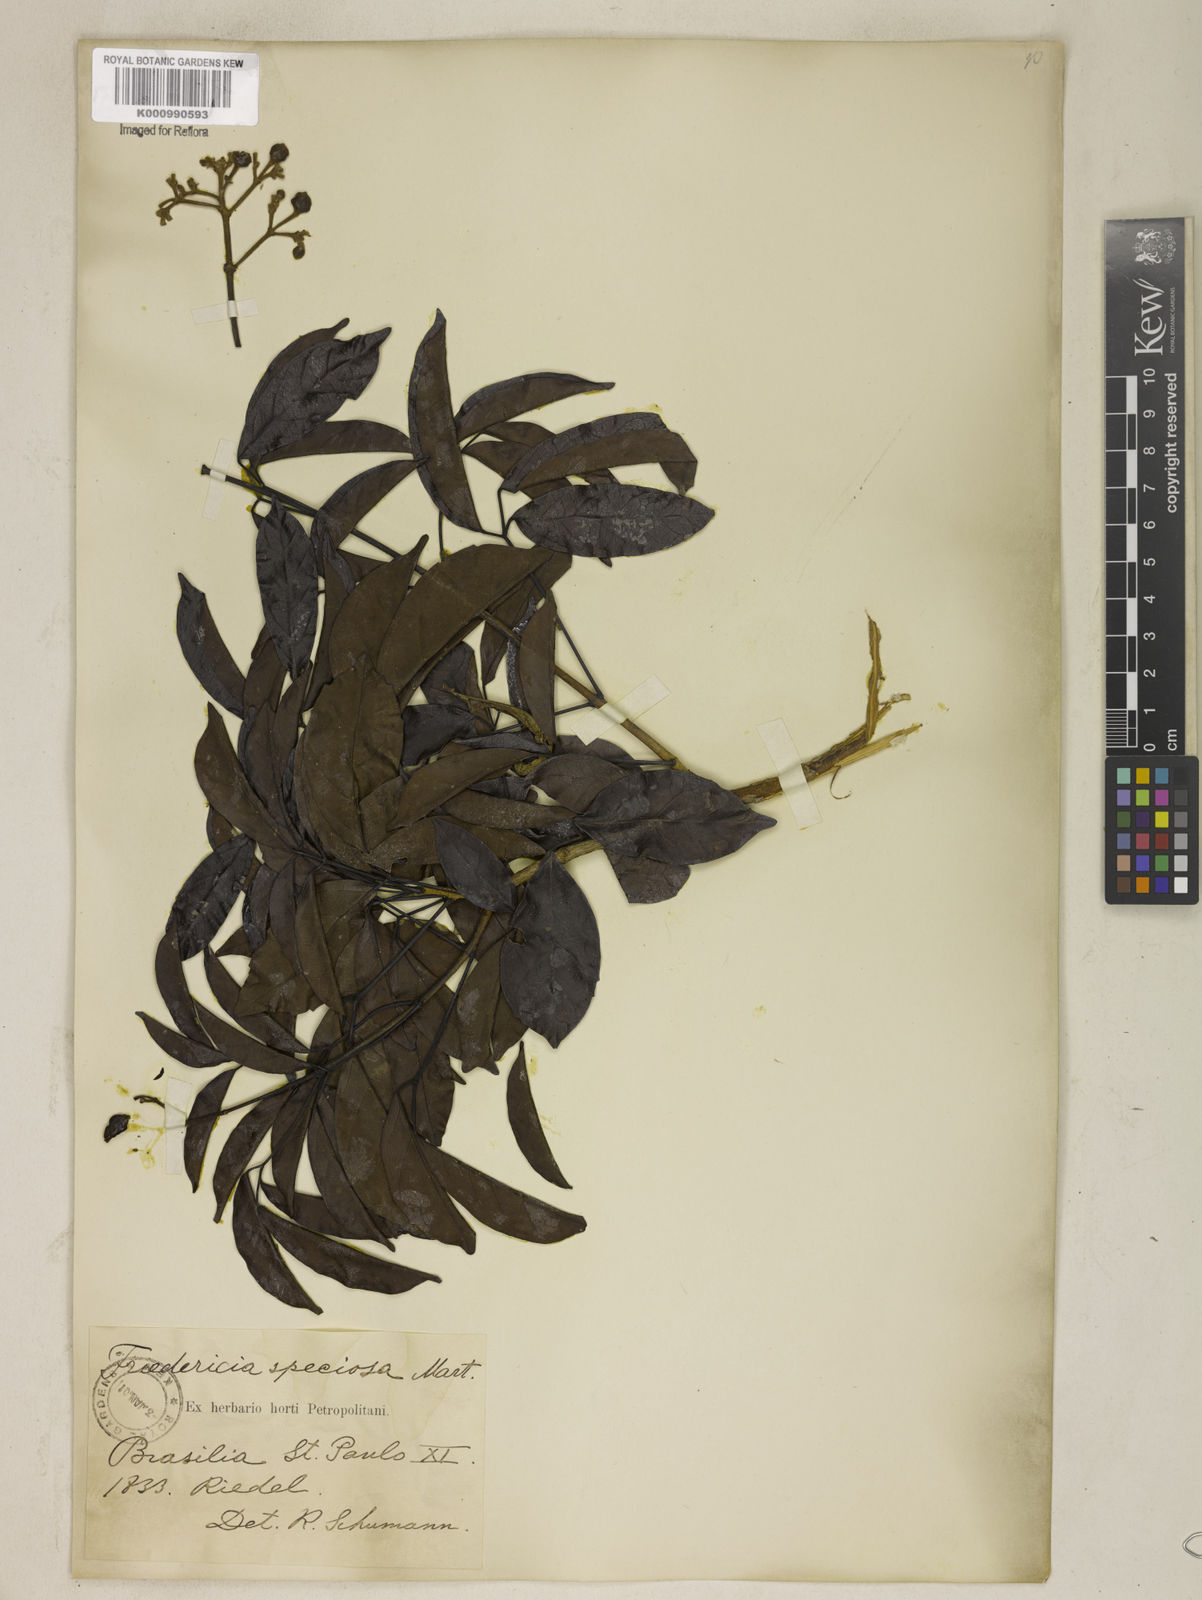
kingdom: Plantae
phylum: Tracheophyta
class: Magnoliopsida
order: Lamiales
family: Bignoniaceae
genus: Fridericia
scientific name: Fridericia speciosa
